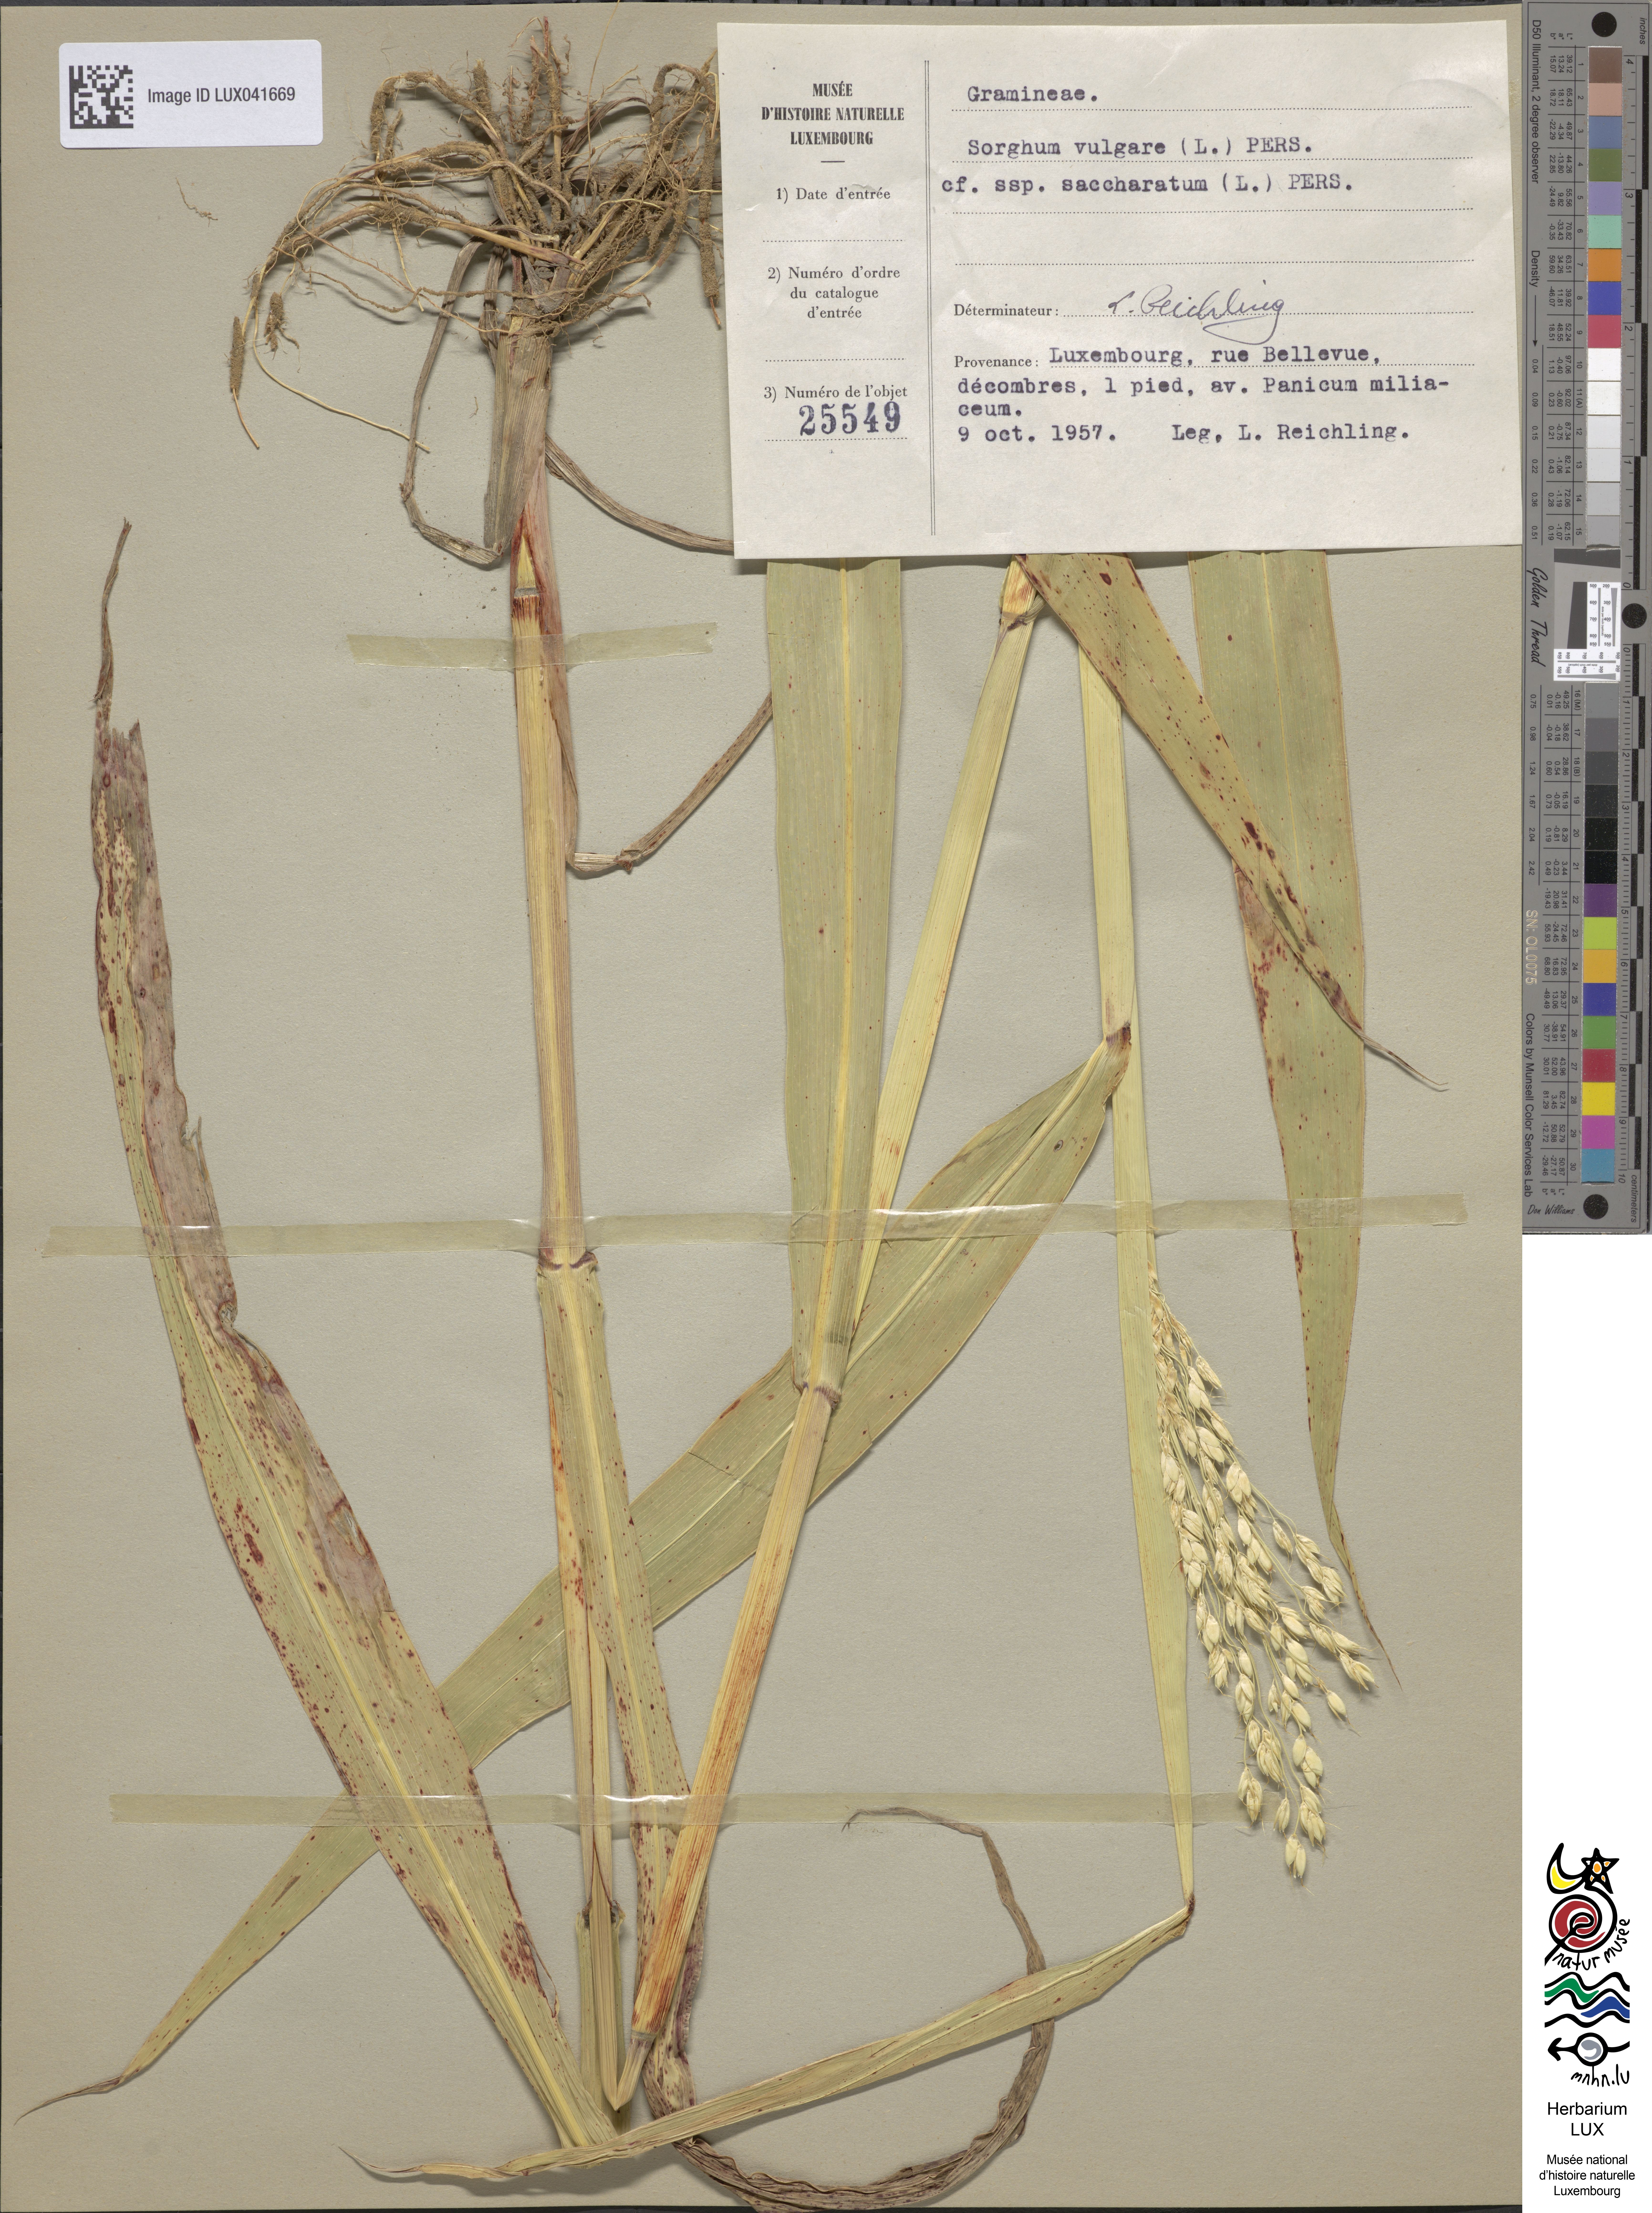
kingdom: Plantae
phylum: Tracheophyta
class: Liliopsida
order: Poales
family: Poaceae
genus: Sorghum
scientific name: Sorghum bicolor
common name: Sorghum
